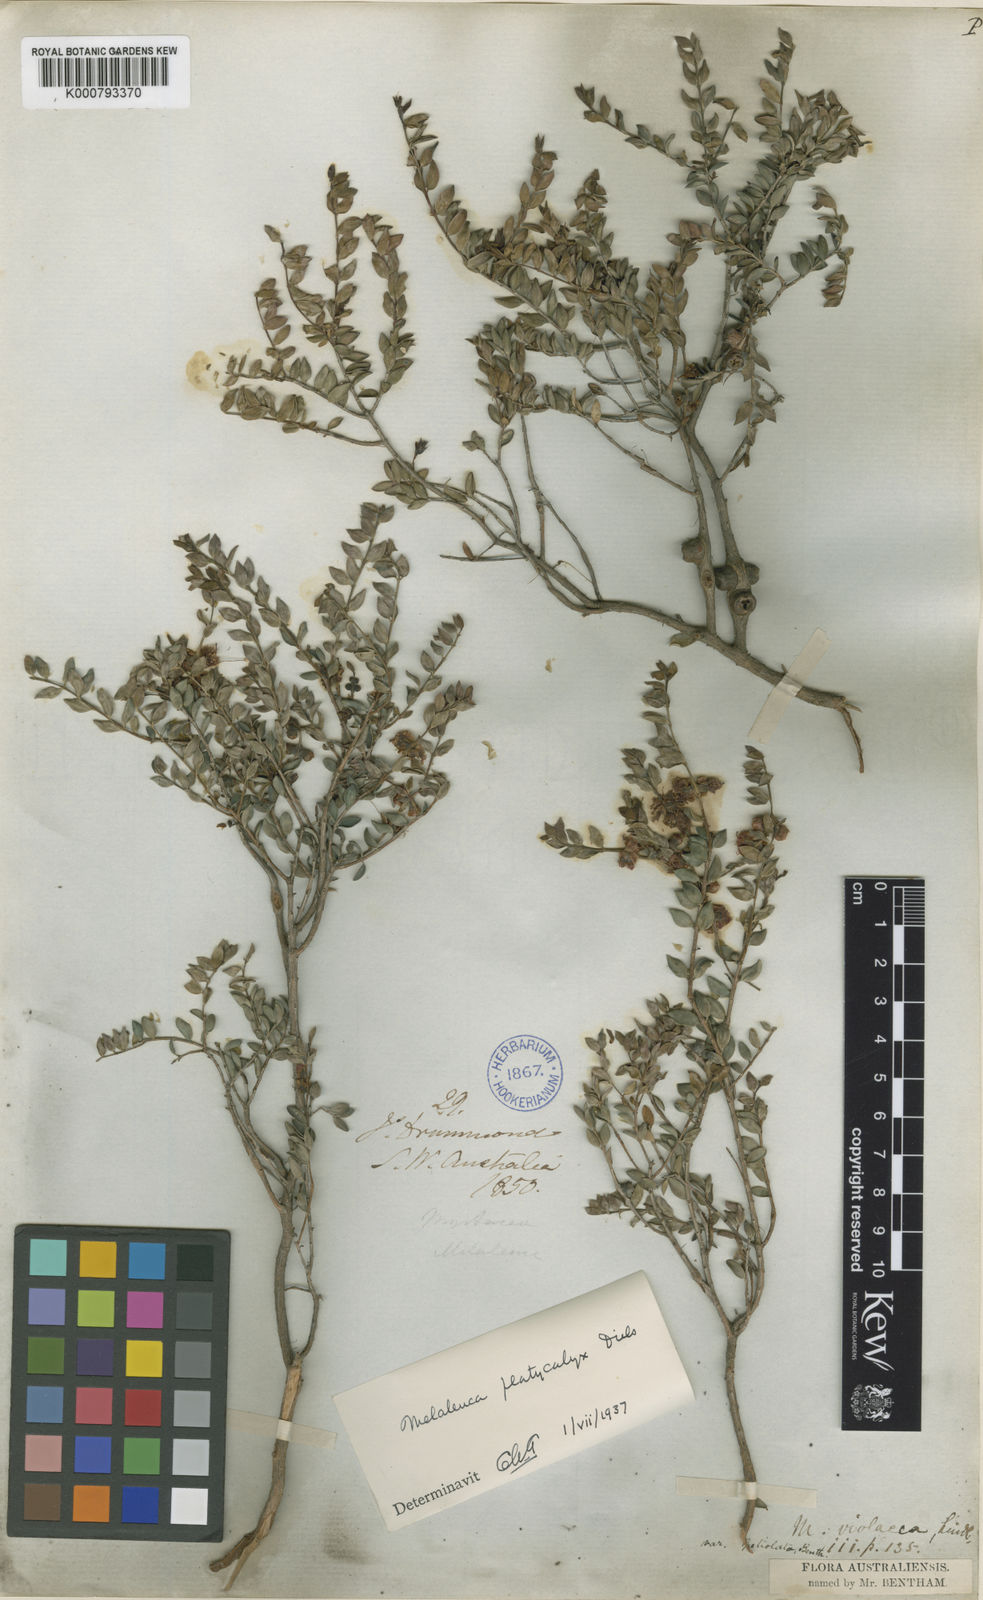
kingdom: Plantae
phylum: Tracheophyta
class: Magnoliopsida
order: Myrtales
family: Myrtaceae
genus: Melaleuca
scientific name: Melaleuca platycalyx
